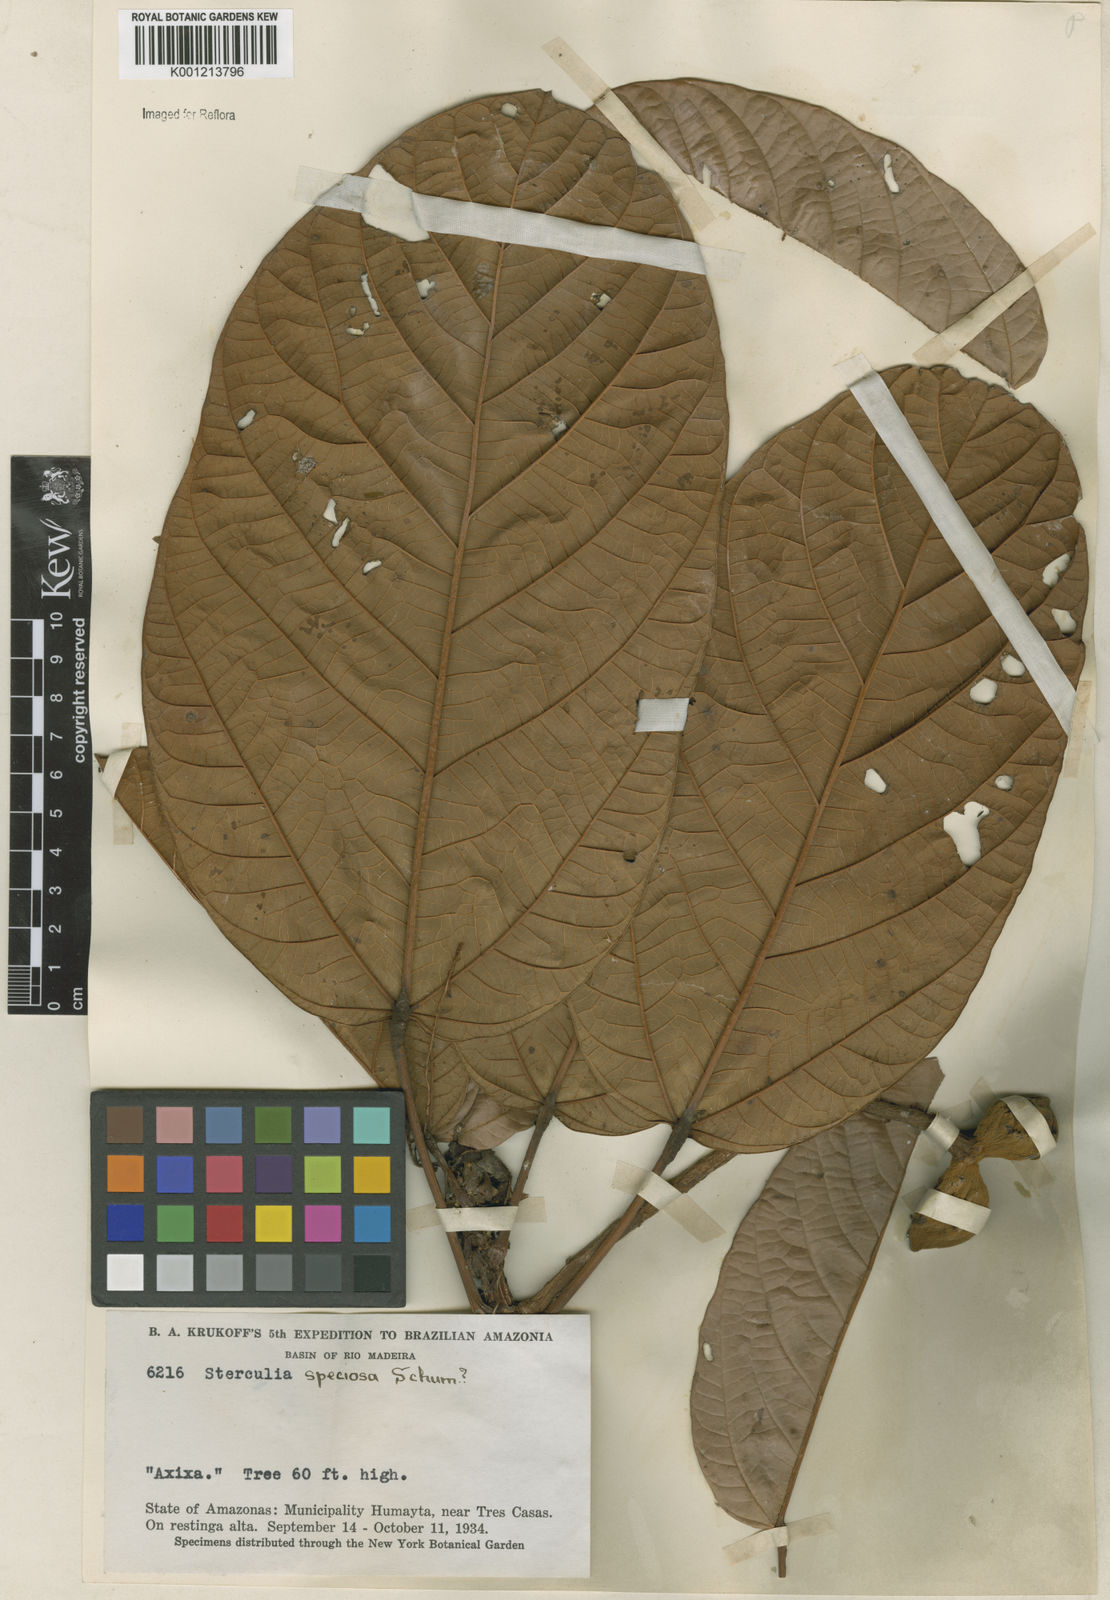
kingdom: Plantae
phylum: Tracheophyta
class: Magnoliopsida
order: Malvales
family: Malvaceae
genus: Sterculia
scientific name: Sterculia speciosa
